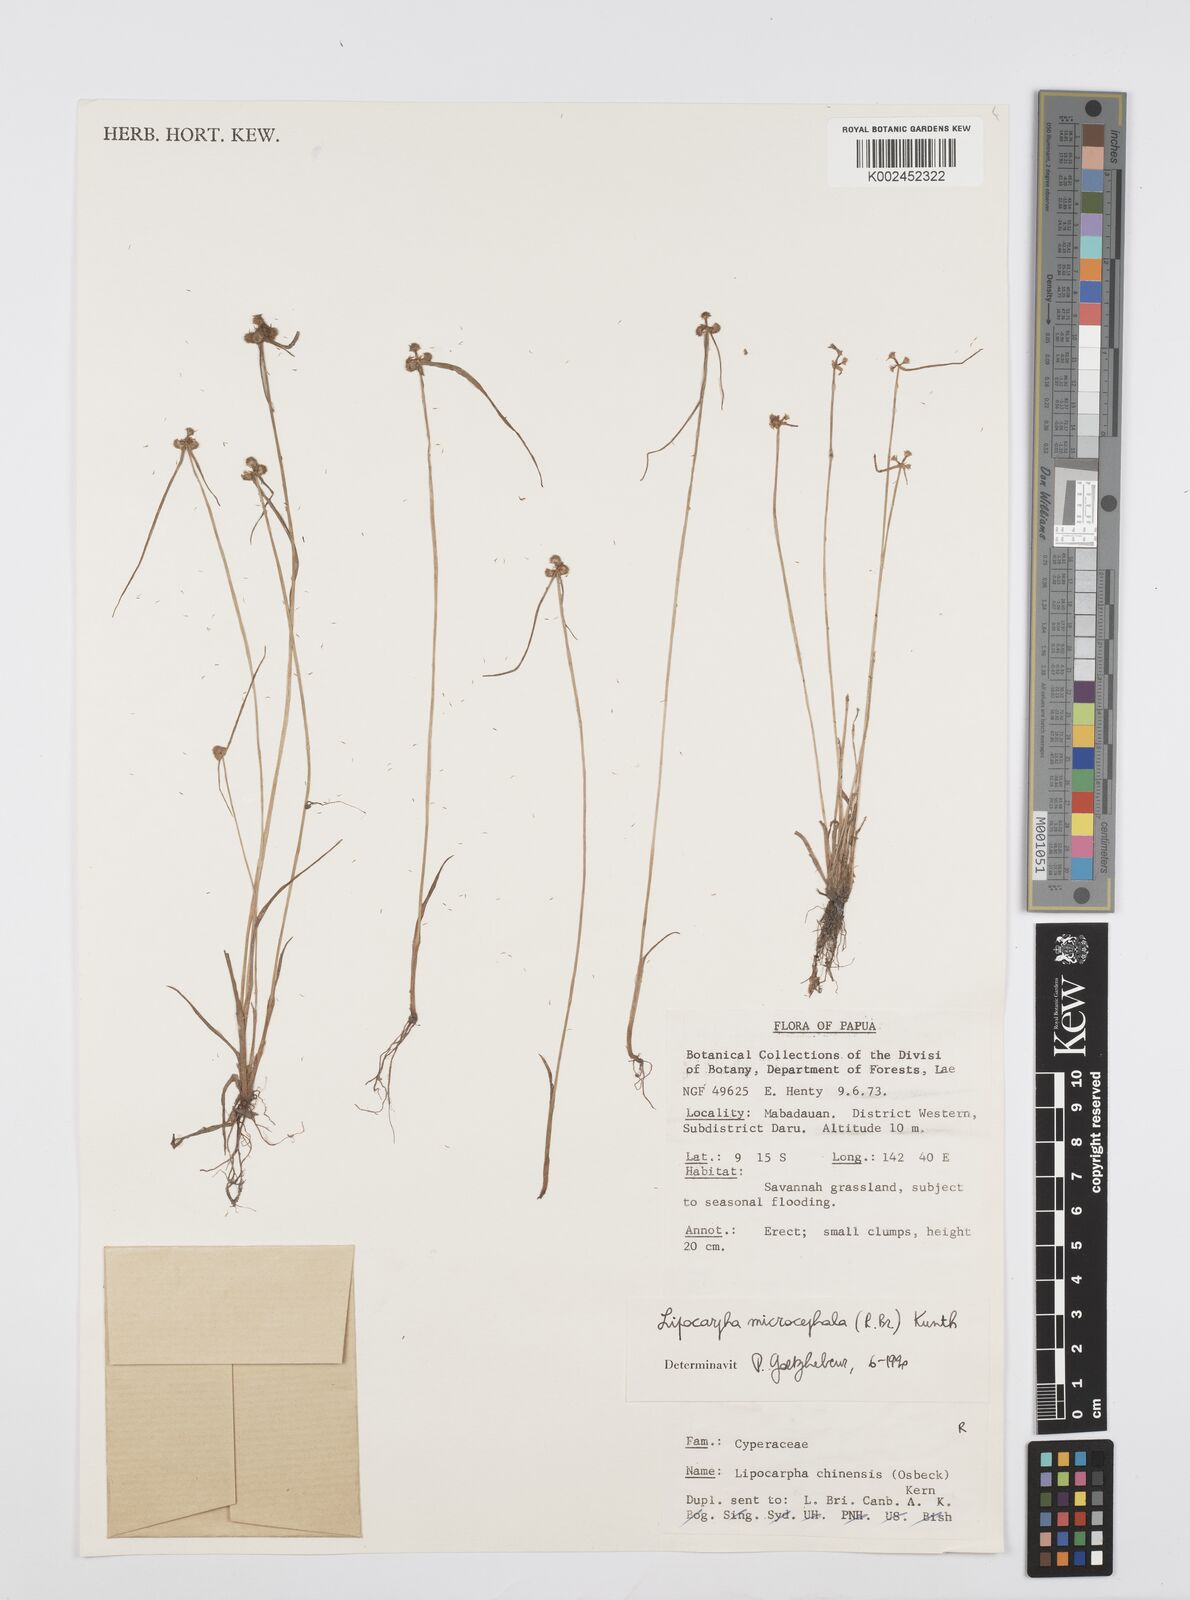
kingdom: Plantae
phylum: Tracheophyta
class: Liliopsida
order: Poales
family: Cyperaceae
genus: Cyperus
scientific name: Cyperus microcephalus
